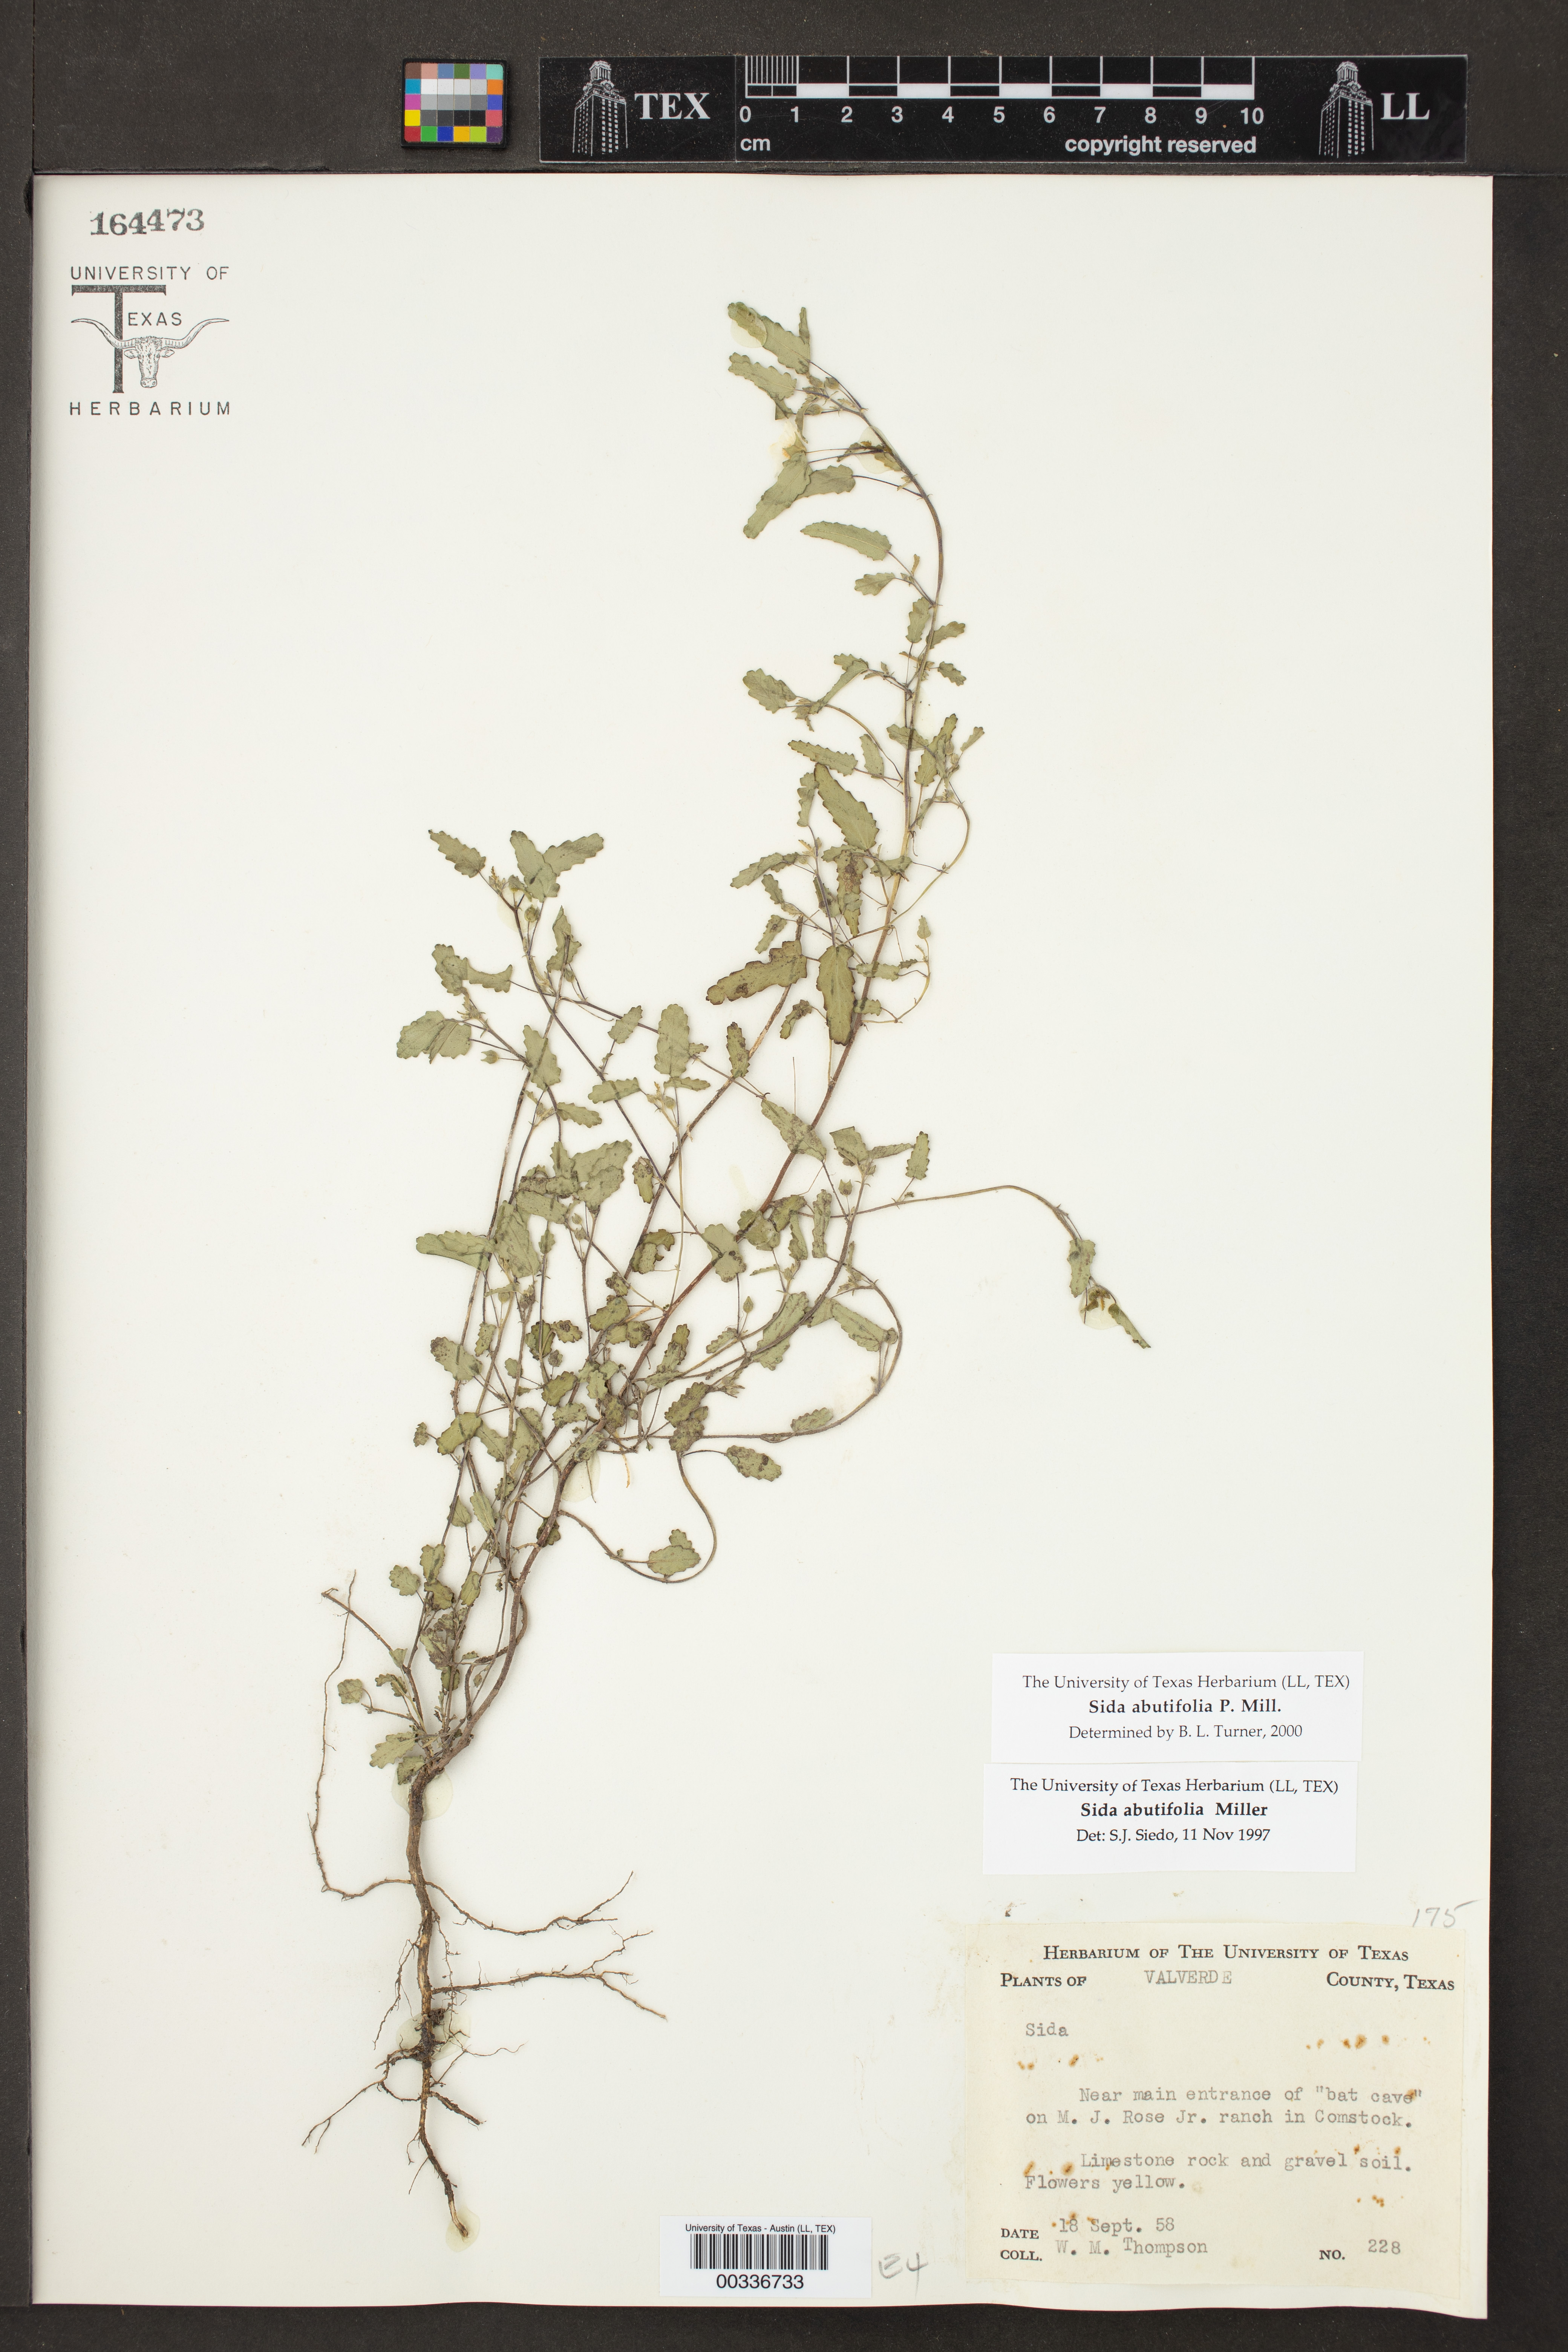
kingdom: Plantae
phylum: Tracheophyta
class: Magnoliopsida
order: Malvales
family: Malvaceae
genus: Sida
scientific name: Sida abutilifolia
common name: Spreading fanpetals
